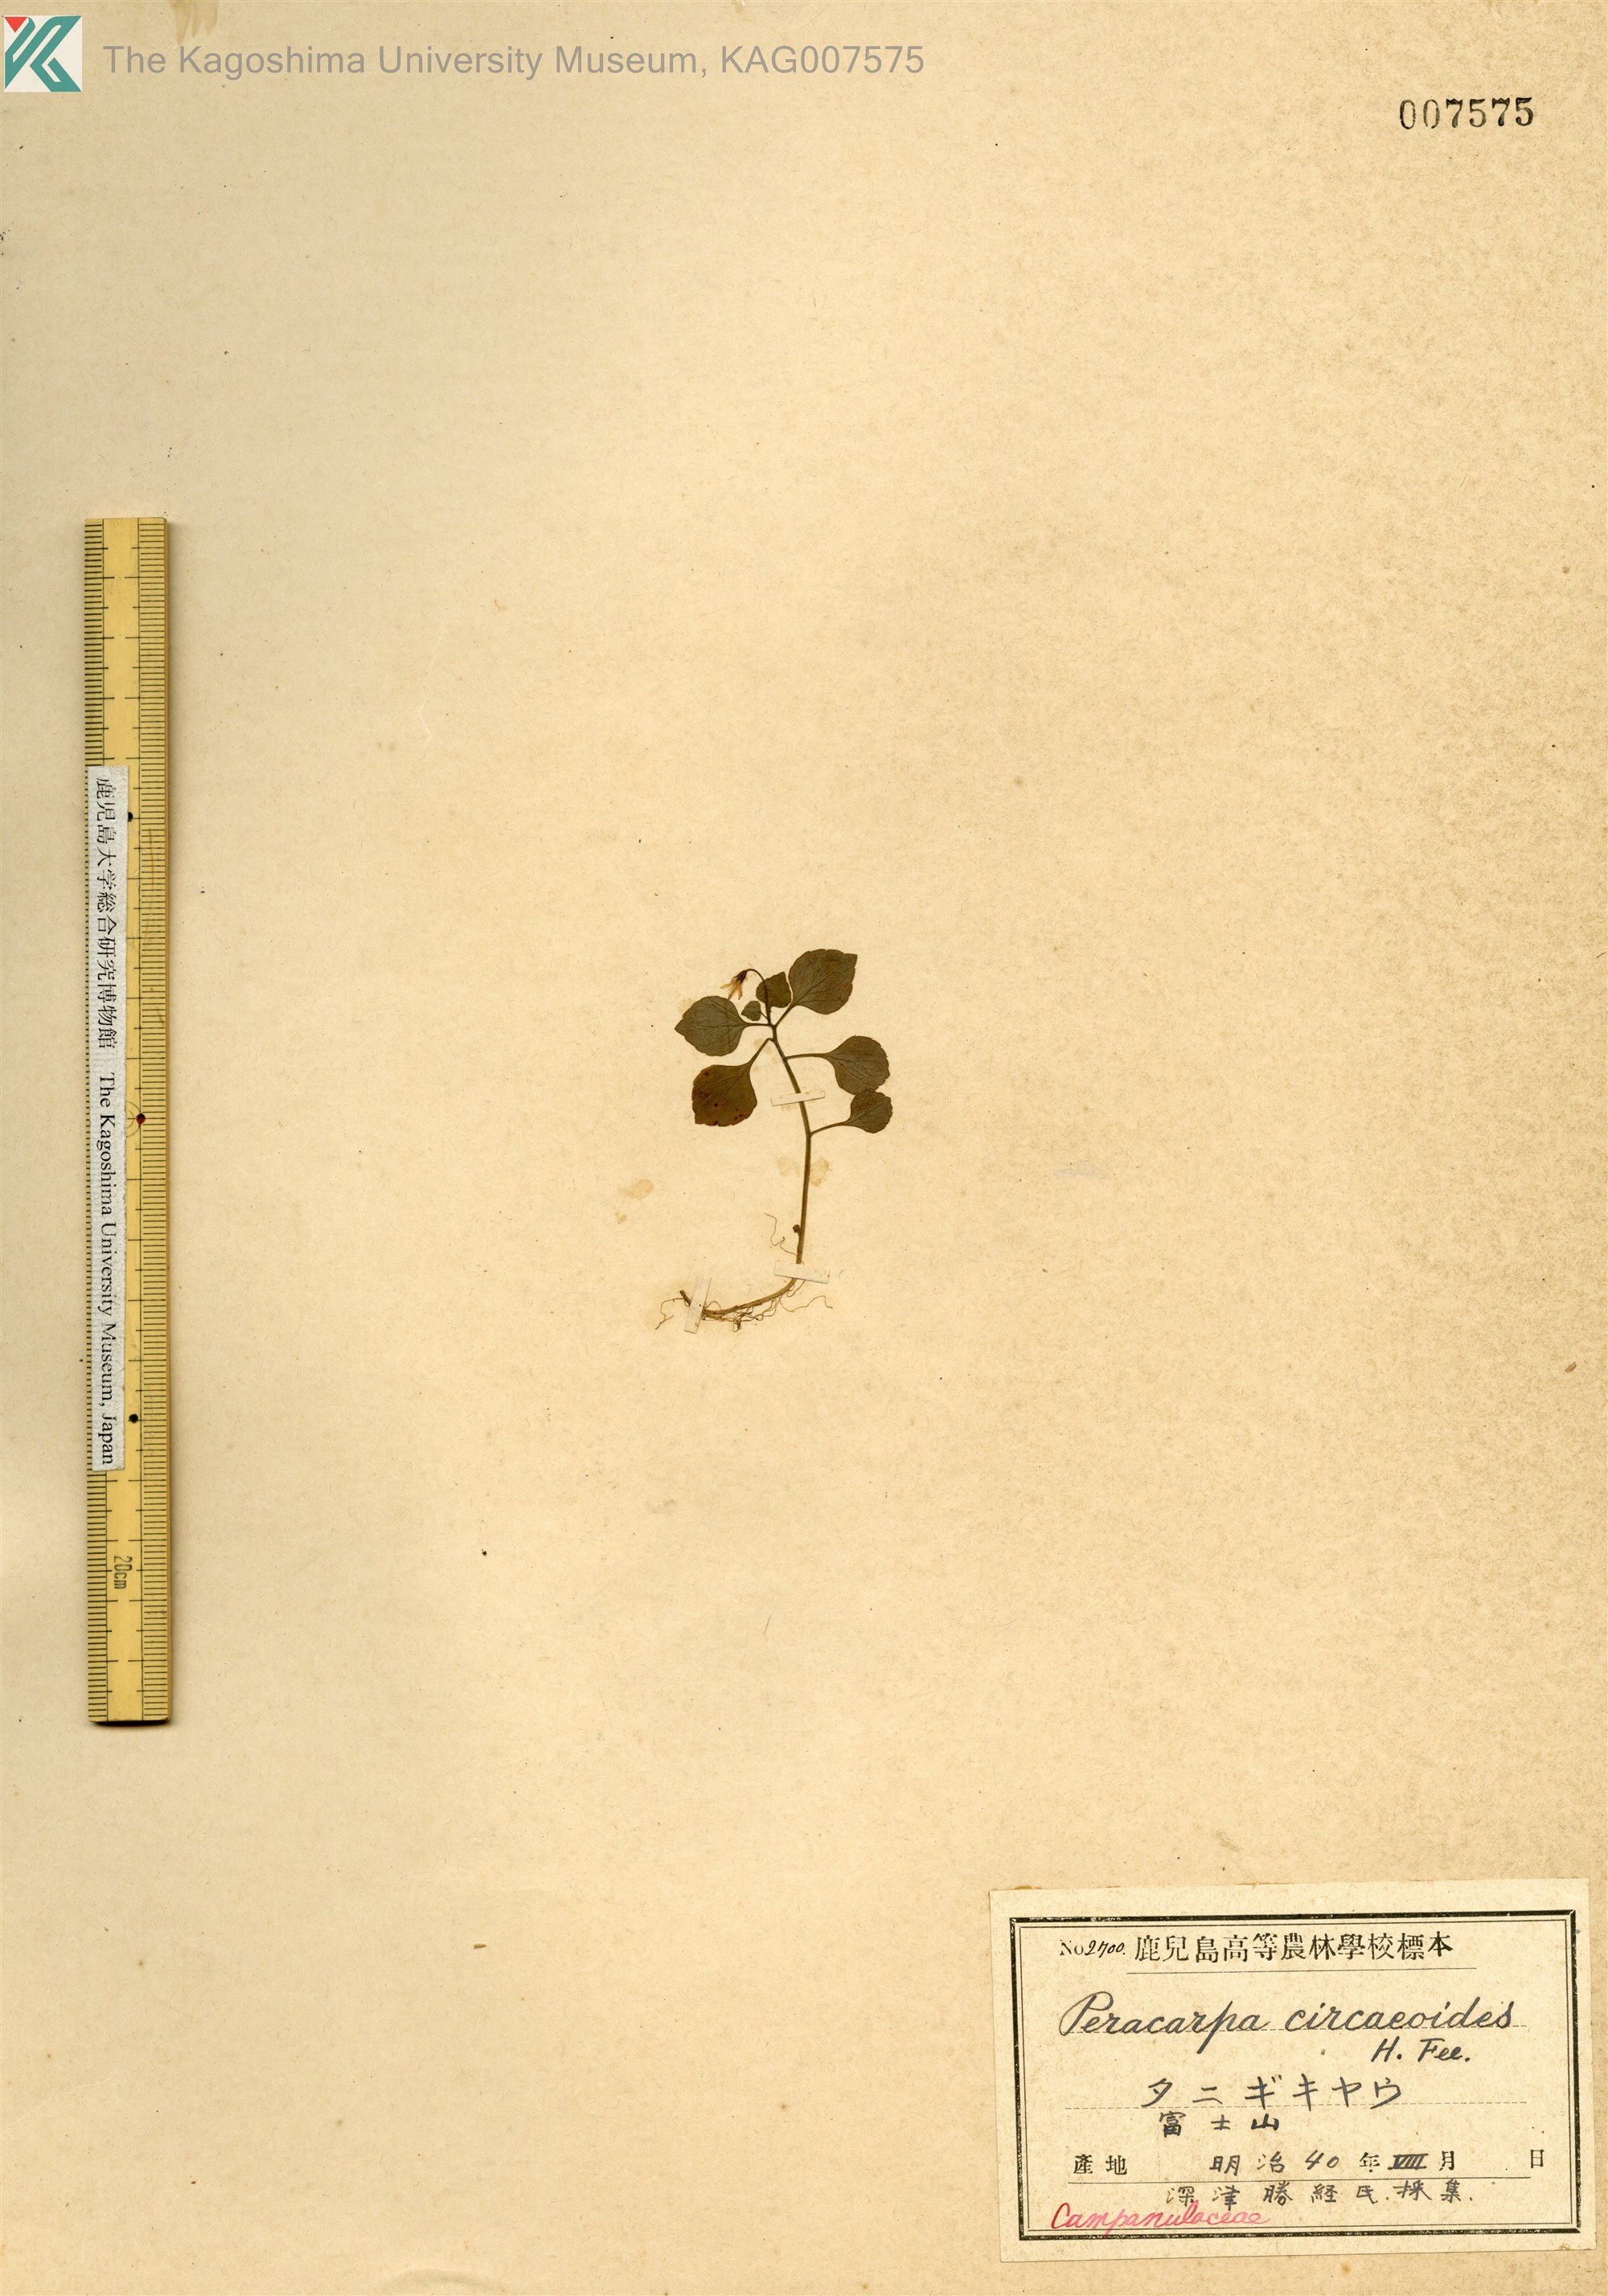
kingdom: Plantae
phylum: Tracheophyta
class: Magnoliopsida
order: Asterales
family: Campanulaceae
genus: Peracarpa
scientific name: Peracarpa carnosa
